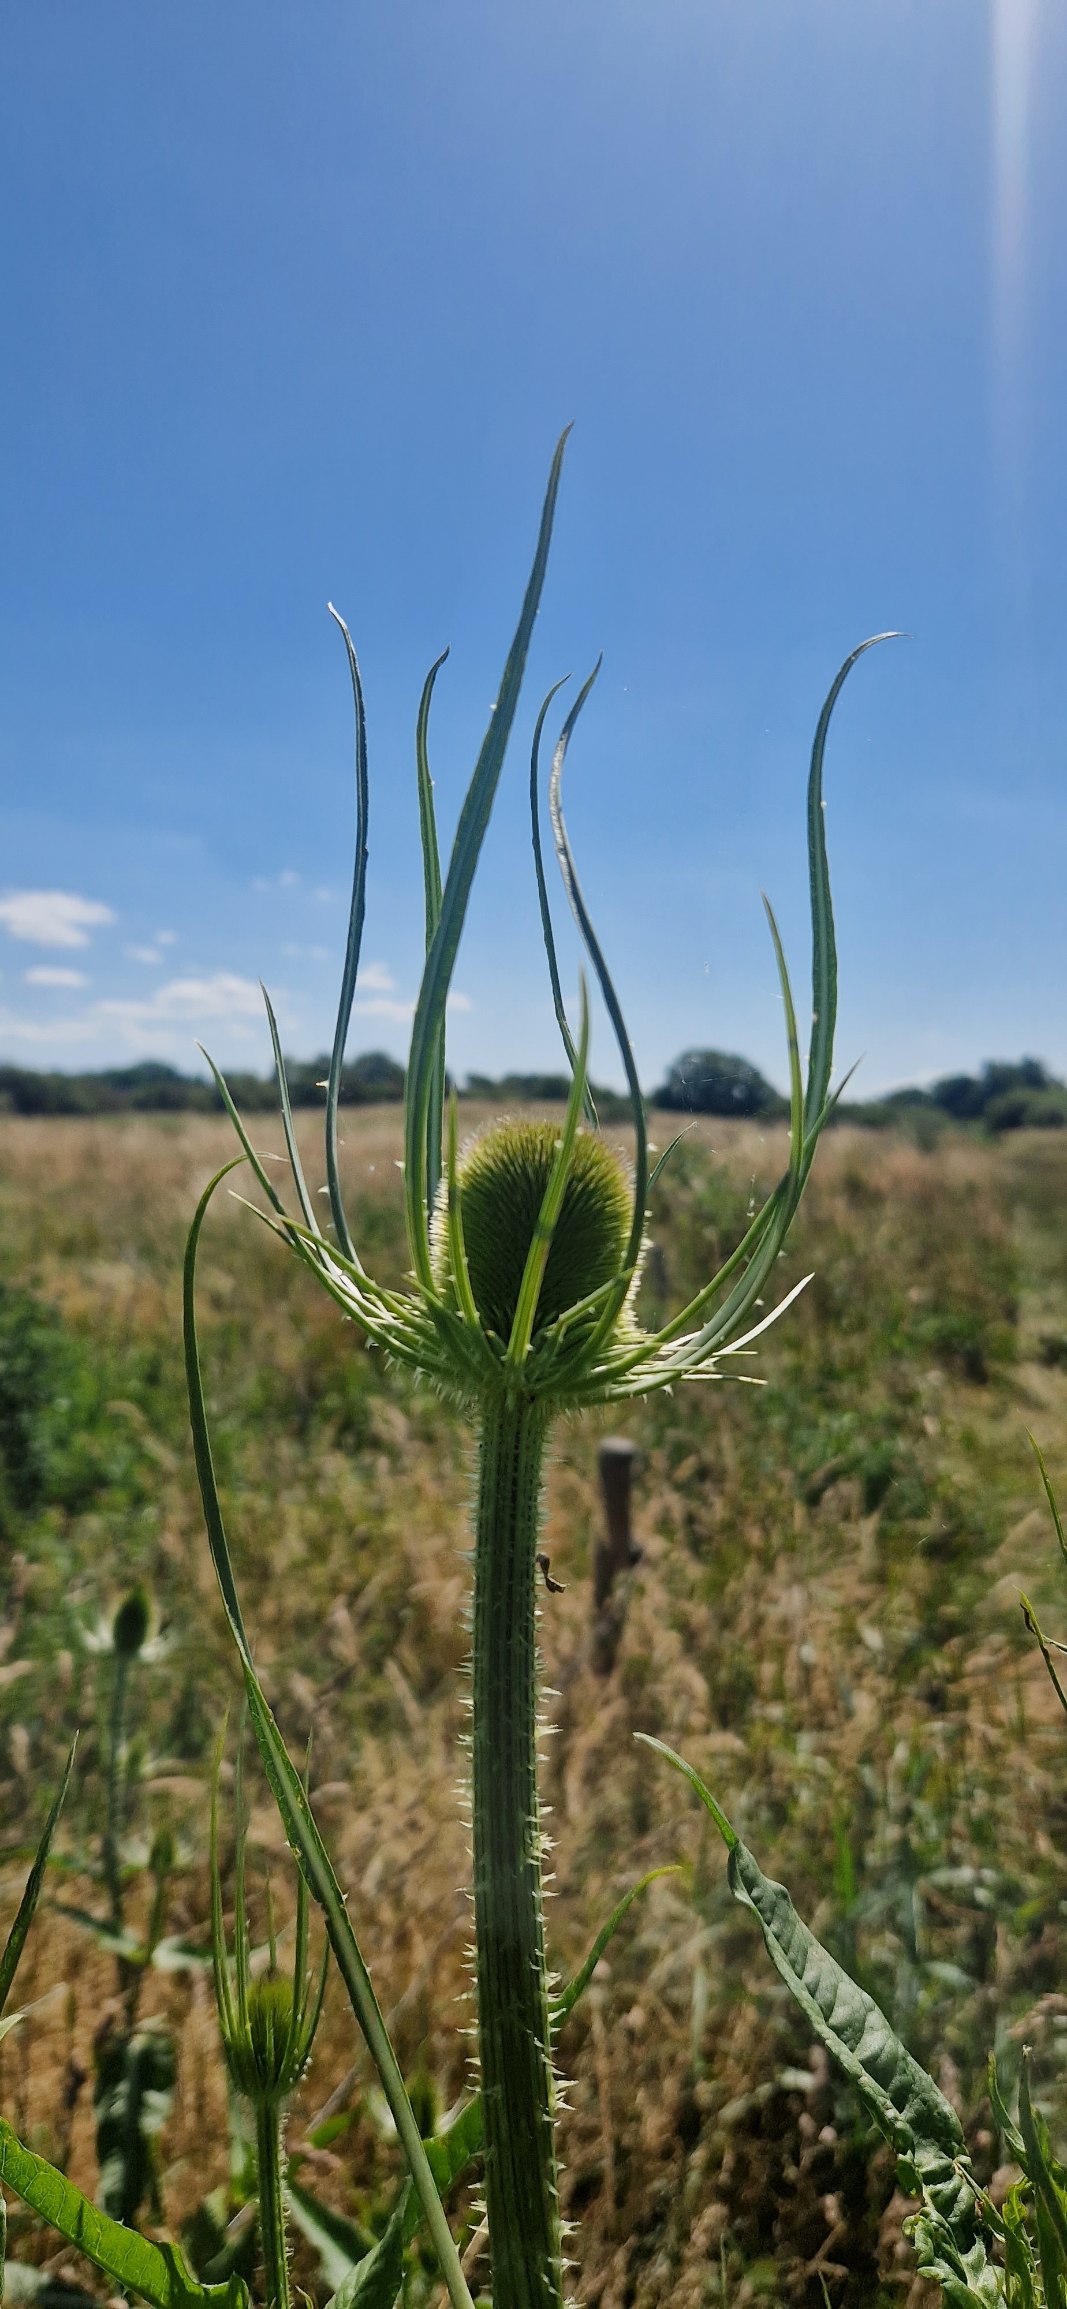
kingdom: Plantae
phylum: Tracheophyta
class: Magnoliopsida
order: Dipsacales
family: Caprifoliaceae
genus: Dipsacus
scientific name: Dipsacus fullonum
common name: Gærde-kartebolle
